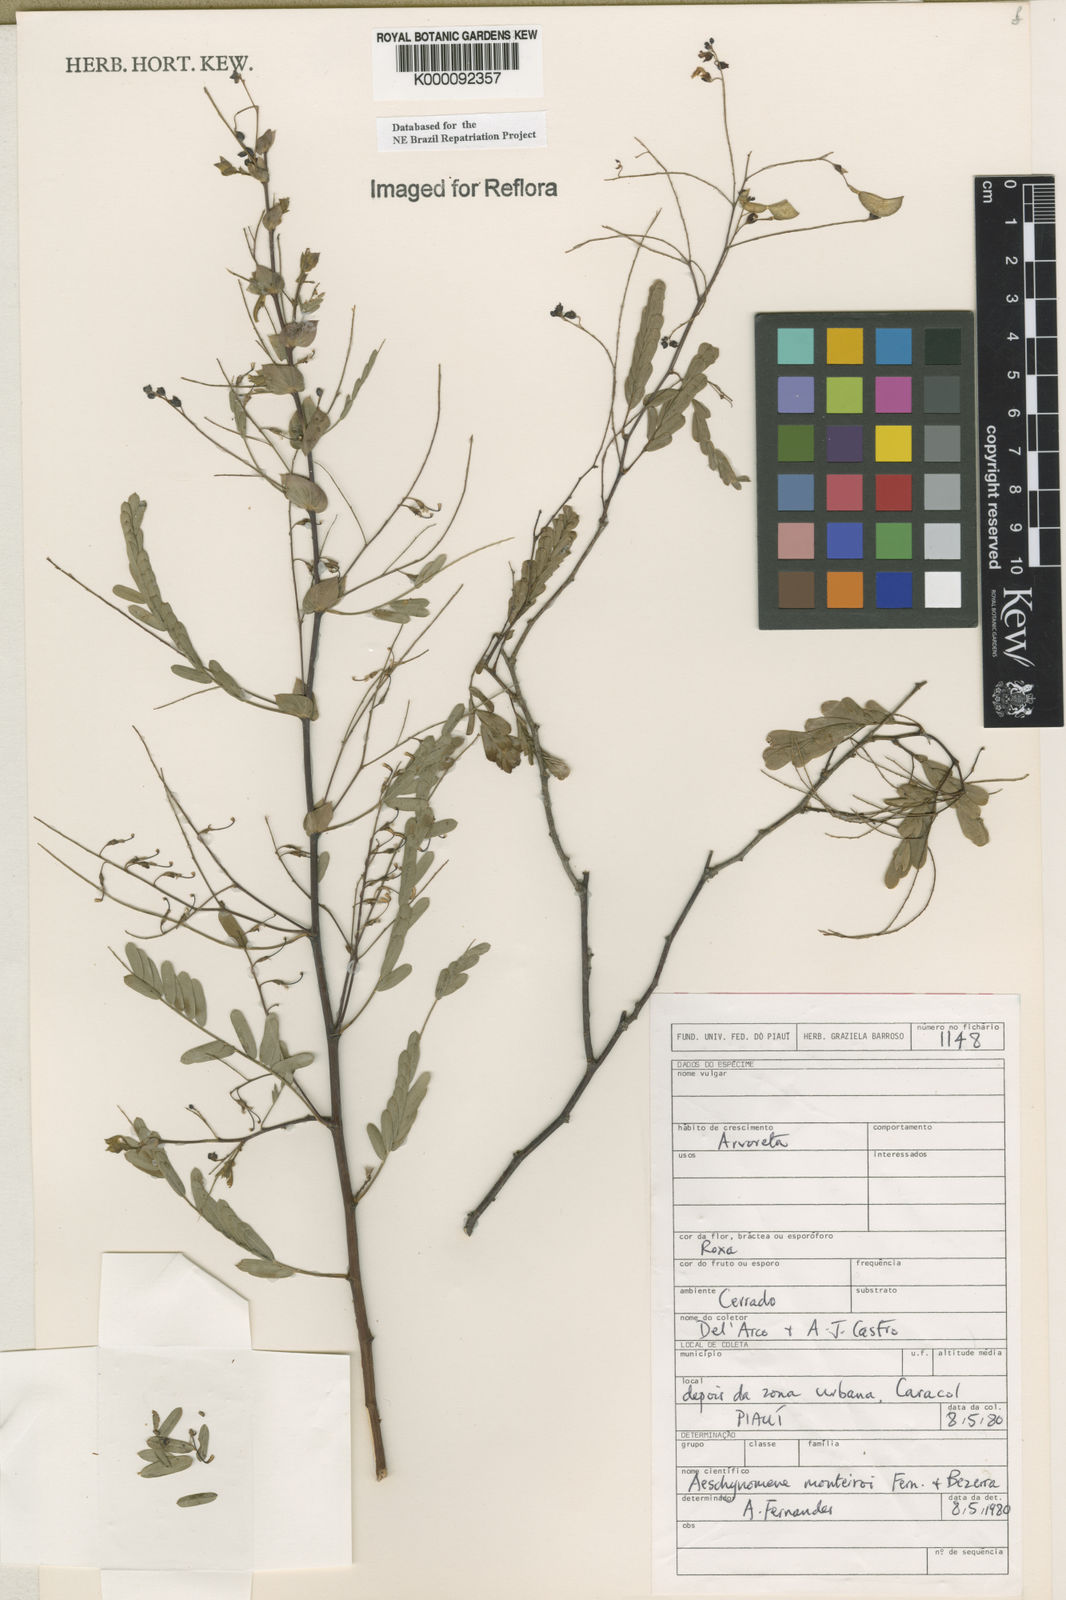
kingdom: Plantae
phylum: Tracheophyta
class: Magnoliopsida
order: Fabales
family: Fabaceae
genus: Ctenodon
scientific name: Ctenodon monteiroi
